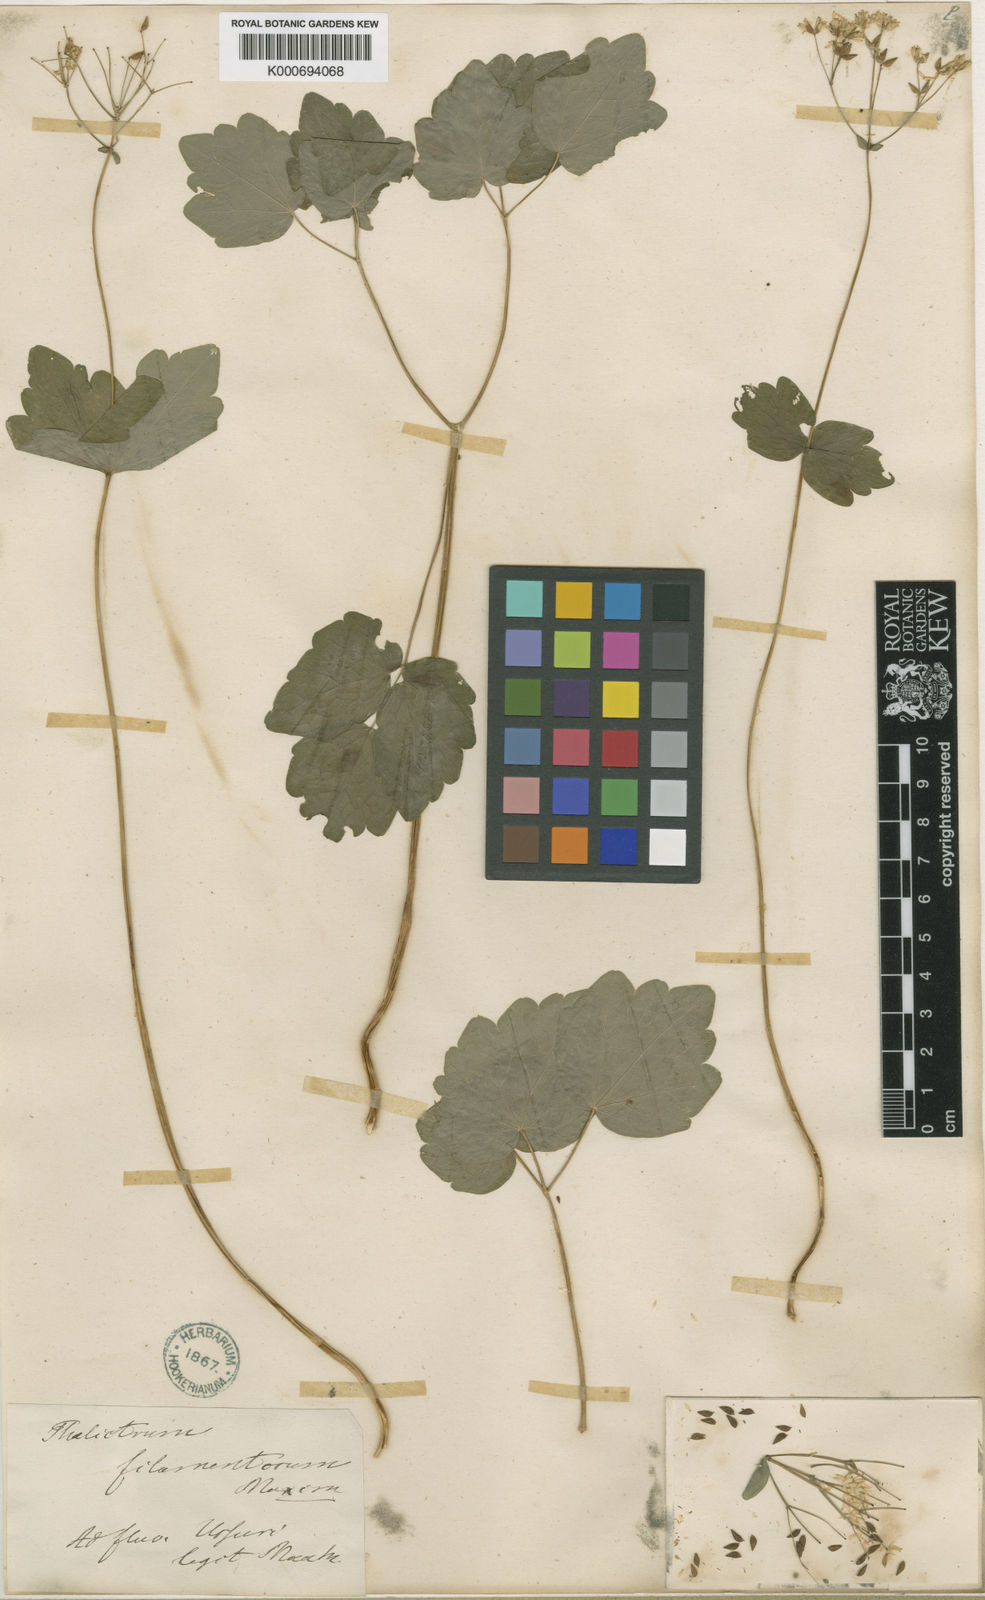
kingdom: Plantae
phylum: Tracheophyta
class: Magnoliopsida
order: Ranunculales
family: Ranunculaceae
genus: Thalictrum
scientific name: Thalictrum filamentosum
